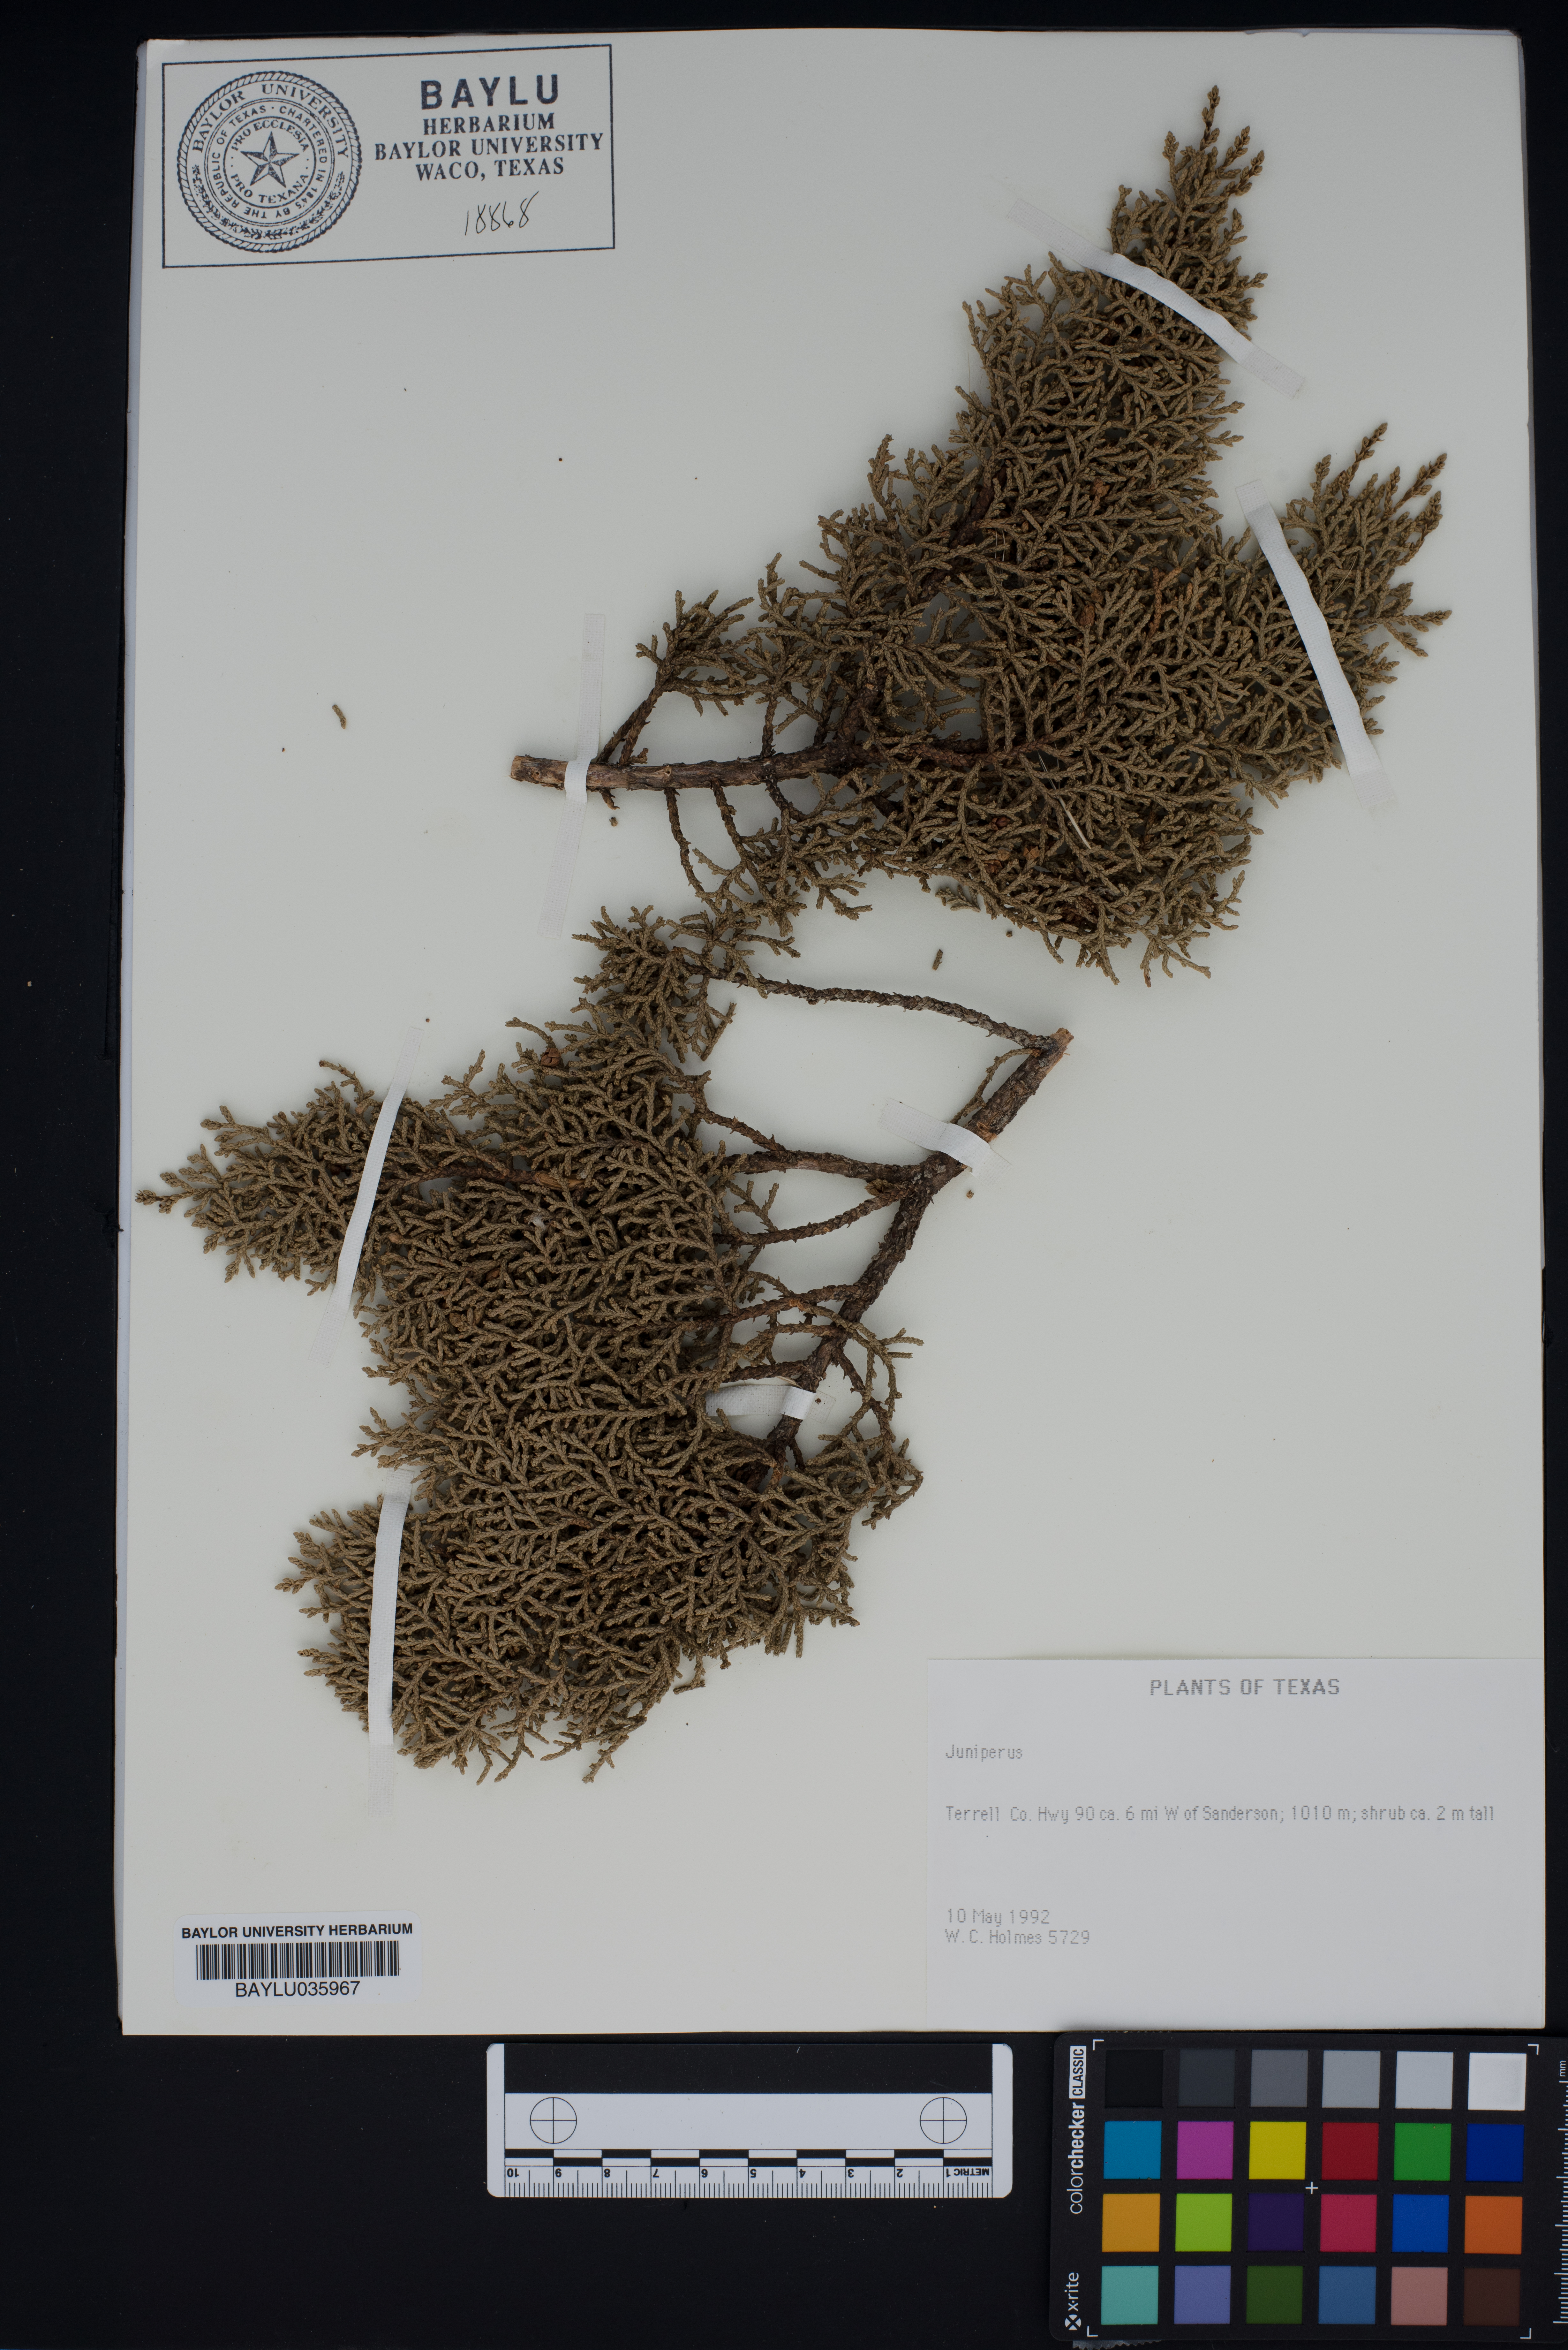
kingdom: Plantae
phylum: Tracheophyta
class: Pinopsida
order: Pinales
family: Cupressaceae
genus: Juniperus
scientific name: Juniperus
